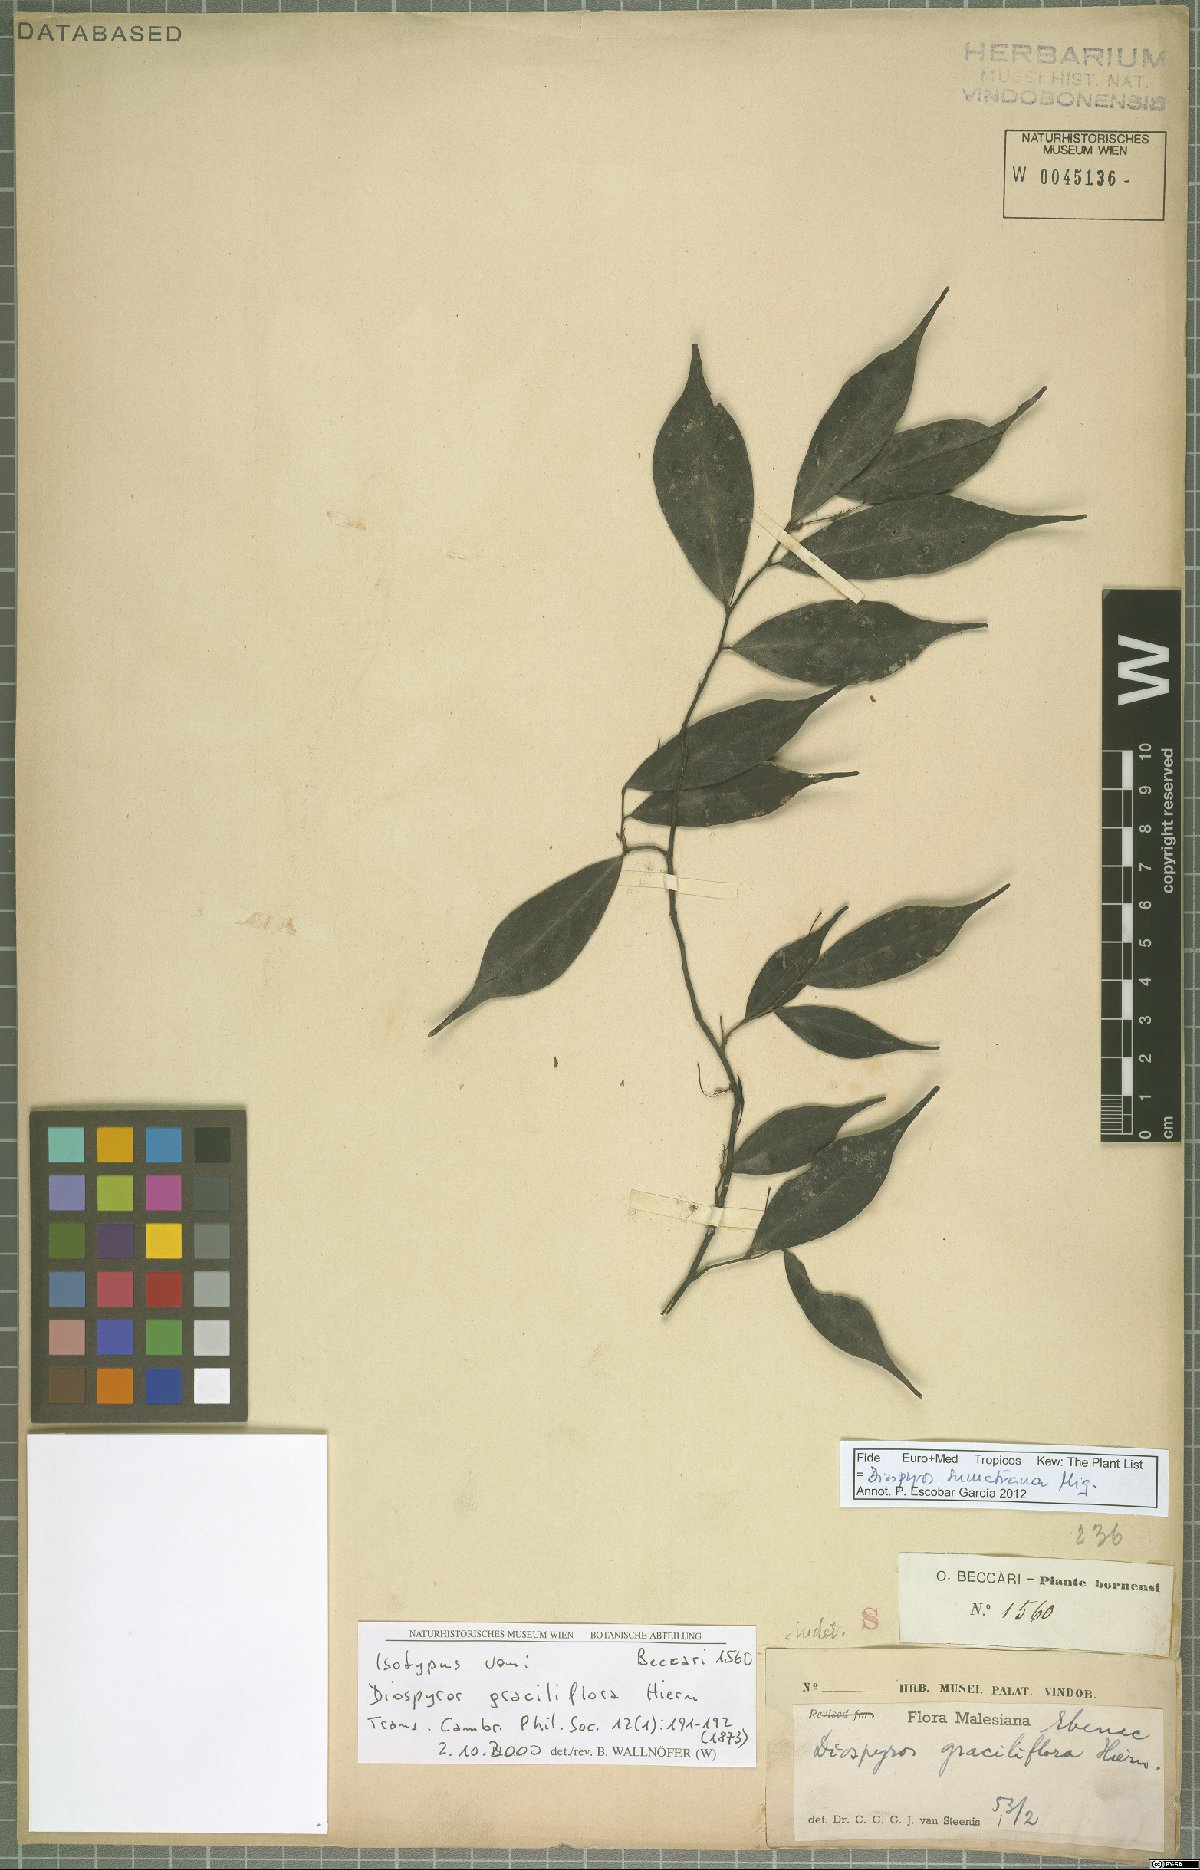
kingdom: Plantae
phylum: Tracheophyta
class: Magnoliopsida
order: Ericales
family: Ebenaceae
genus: Diospyros
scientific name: Diospyros sumatrana
